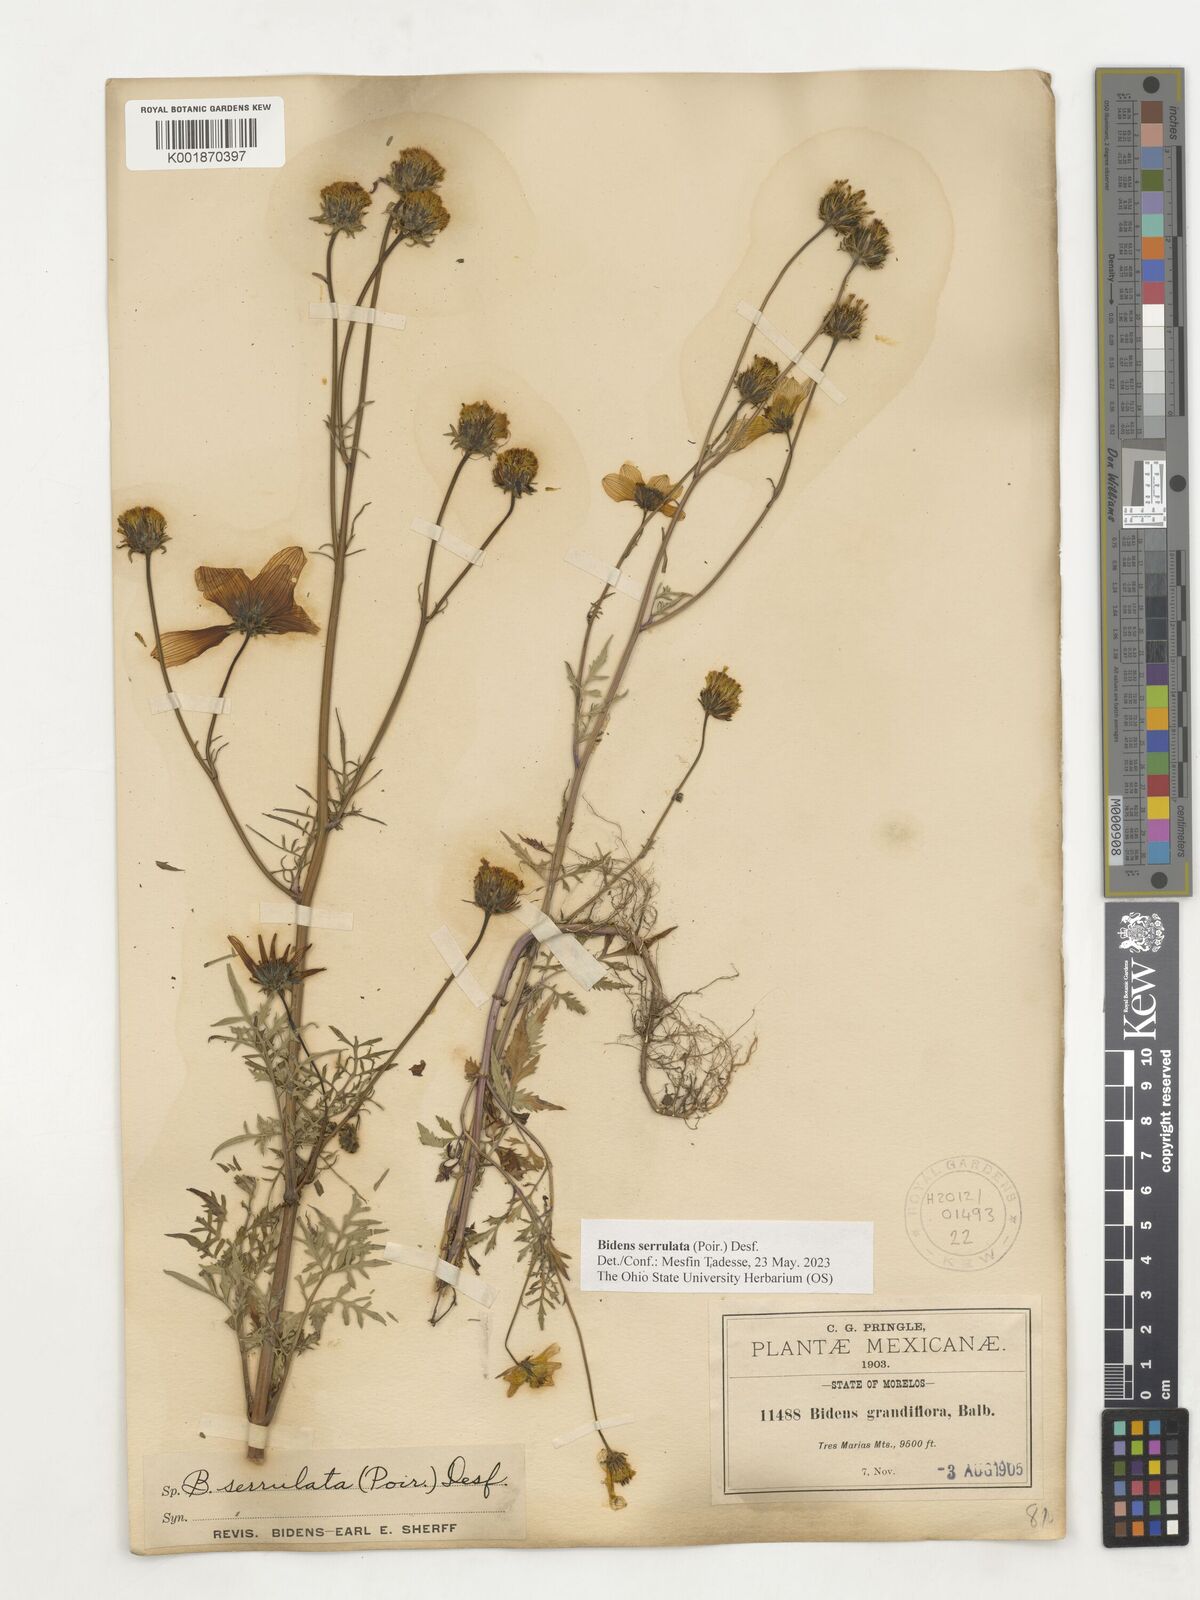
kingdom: Plantae
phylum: Tracheophyta
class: Magnoliopsida
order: Asterales
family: Asteraceae
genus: Bidens
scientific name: Bidens serrulata
